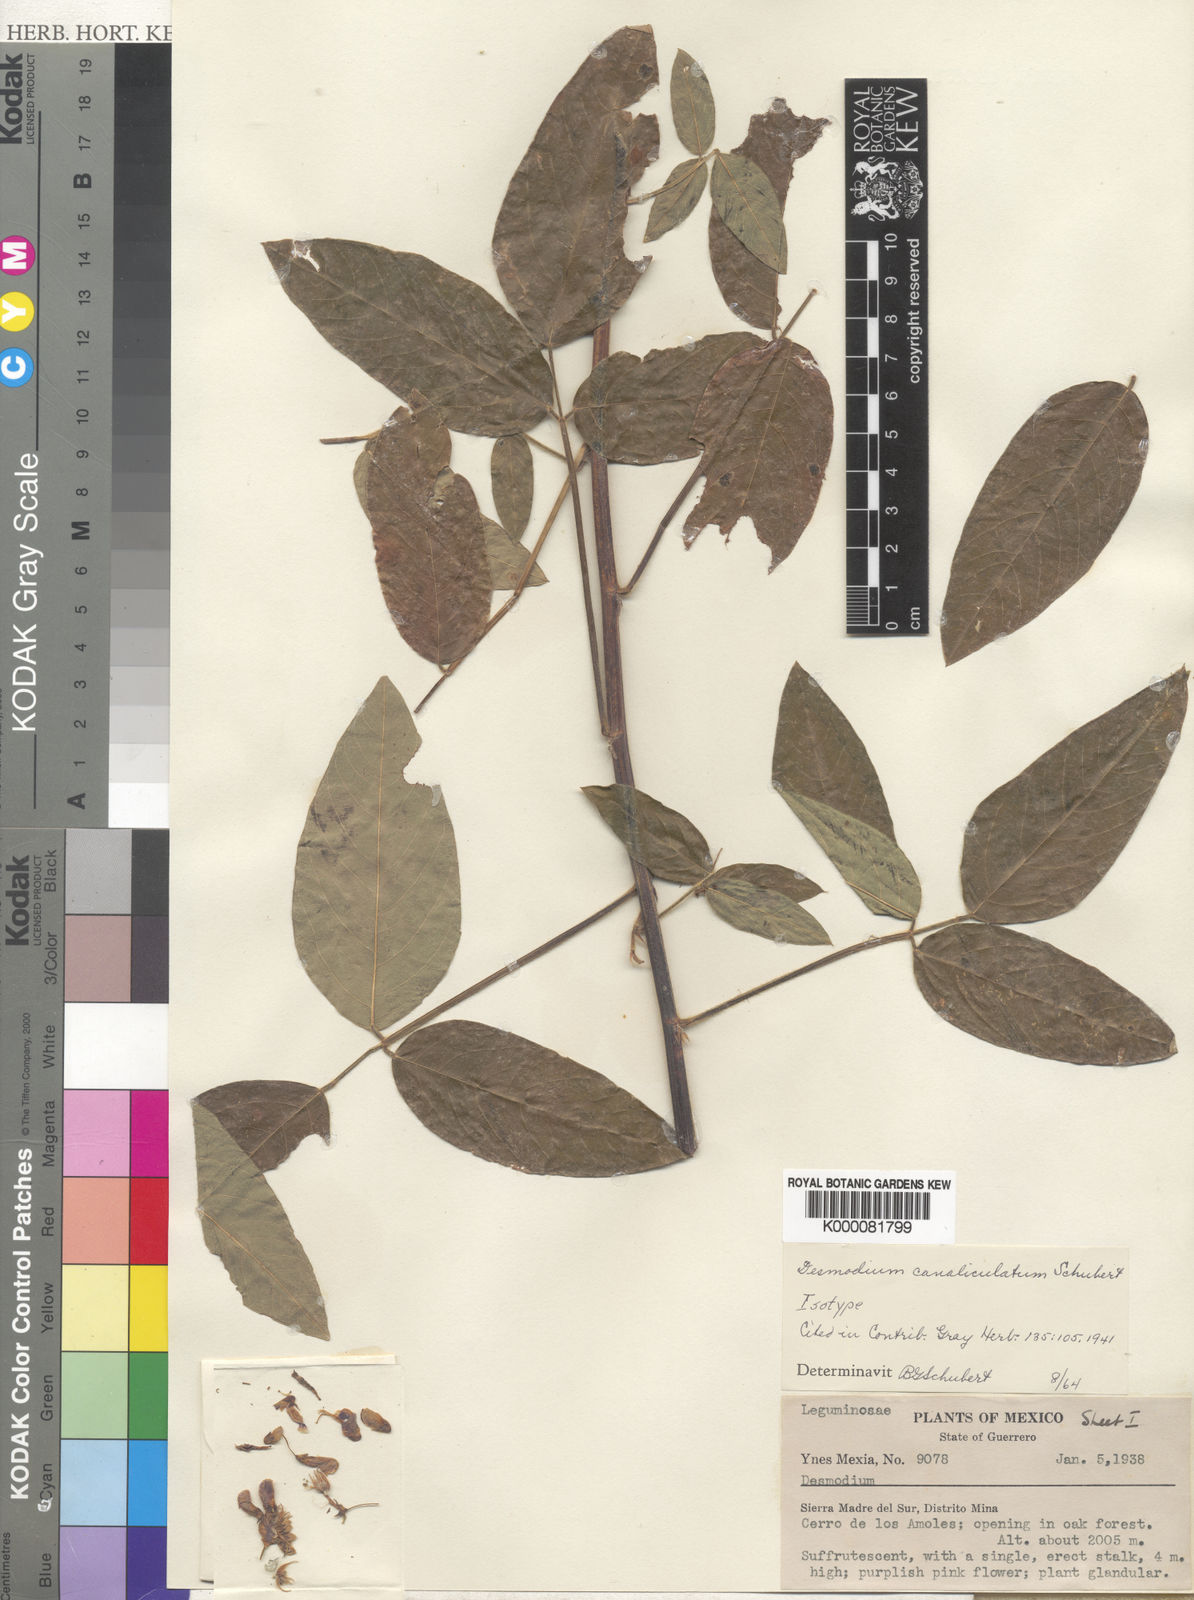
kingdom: Plantae
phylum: Tracheophyta
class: Magnoliopsida
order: Fabales
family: Fabaceae
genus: Desmodium
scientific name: Desmodium canaliculatum
